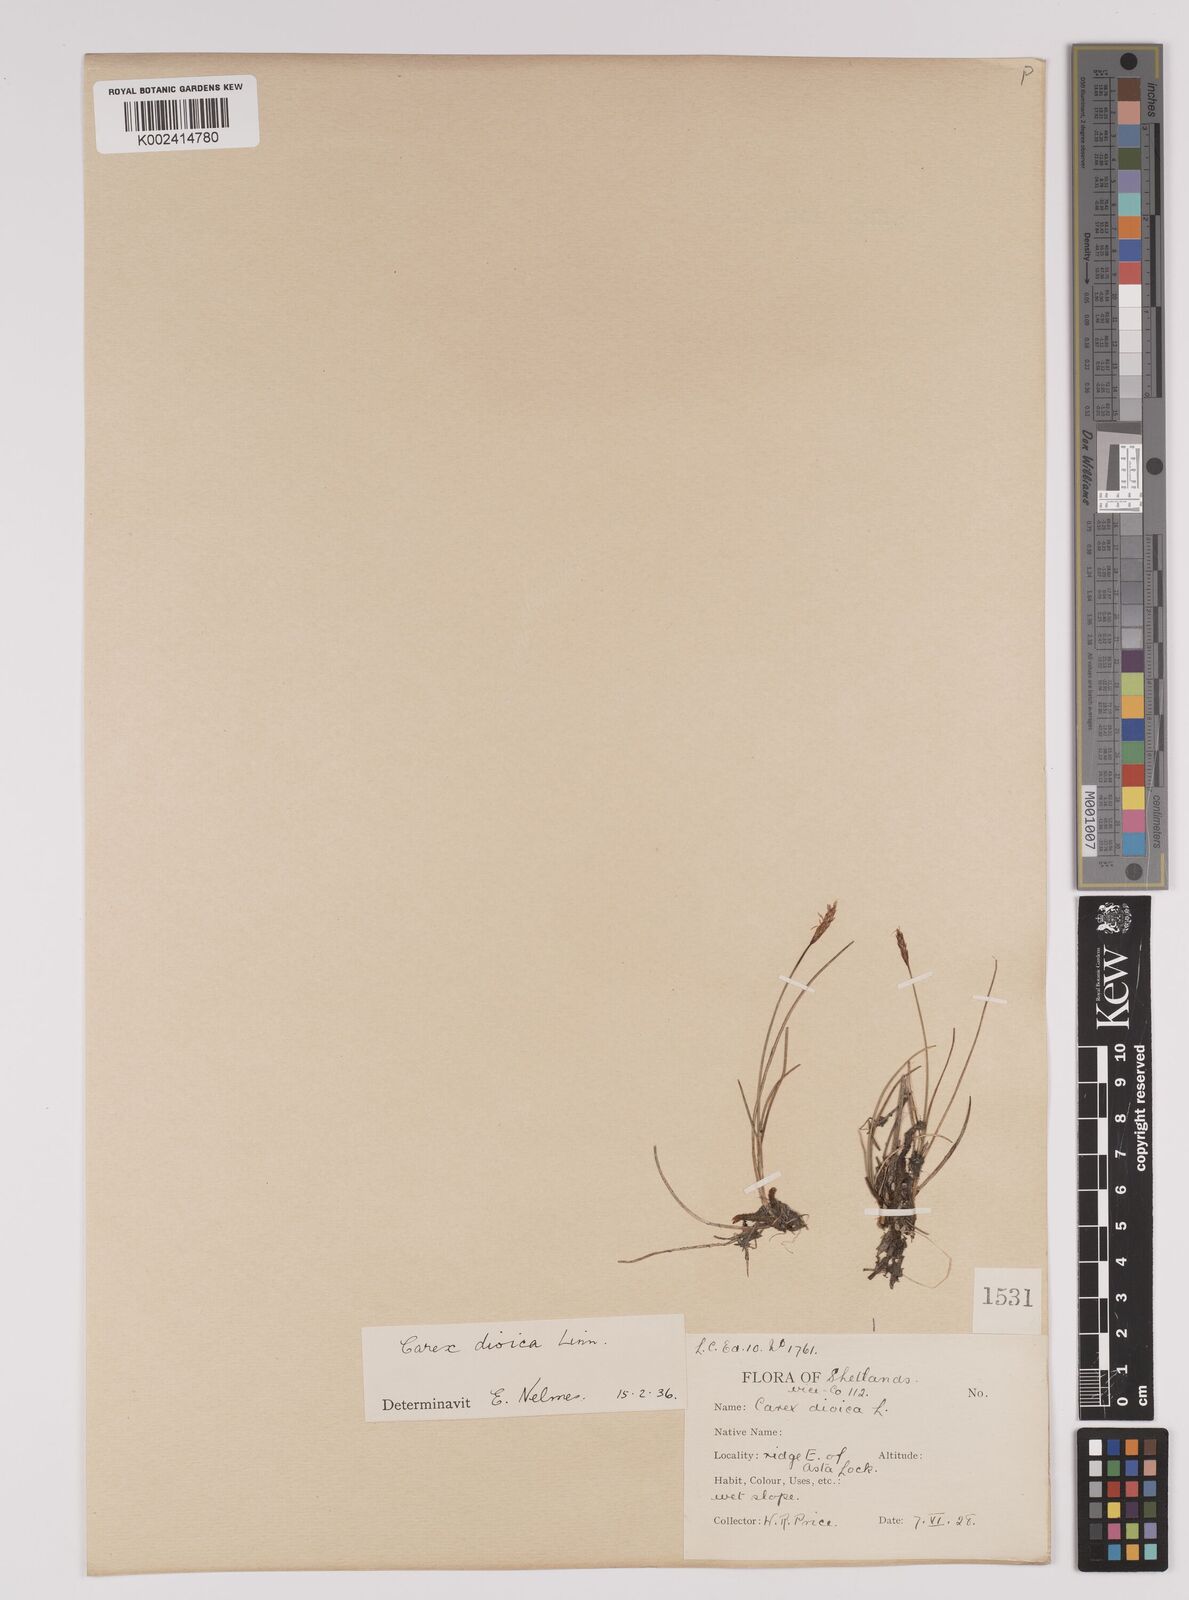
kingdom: Plantae
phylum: Tracheophyta
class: Liliopsida
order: Poales
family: Cyperaceae
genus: Carex
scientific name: Carex dioica
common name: Dioecious sedge
